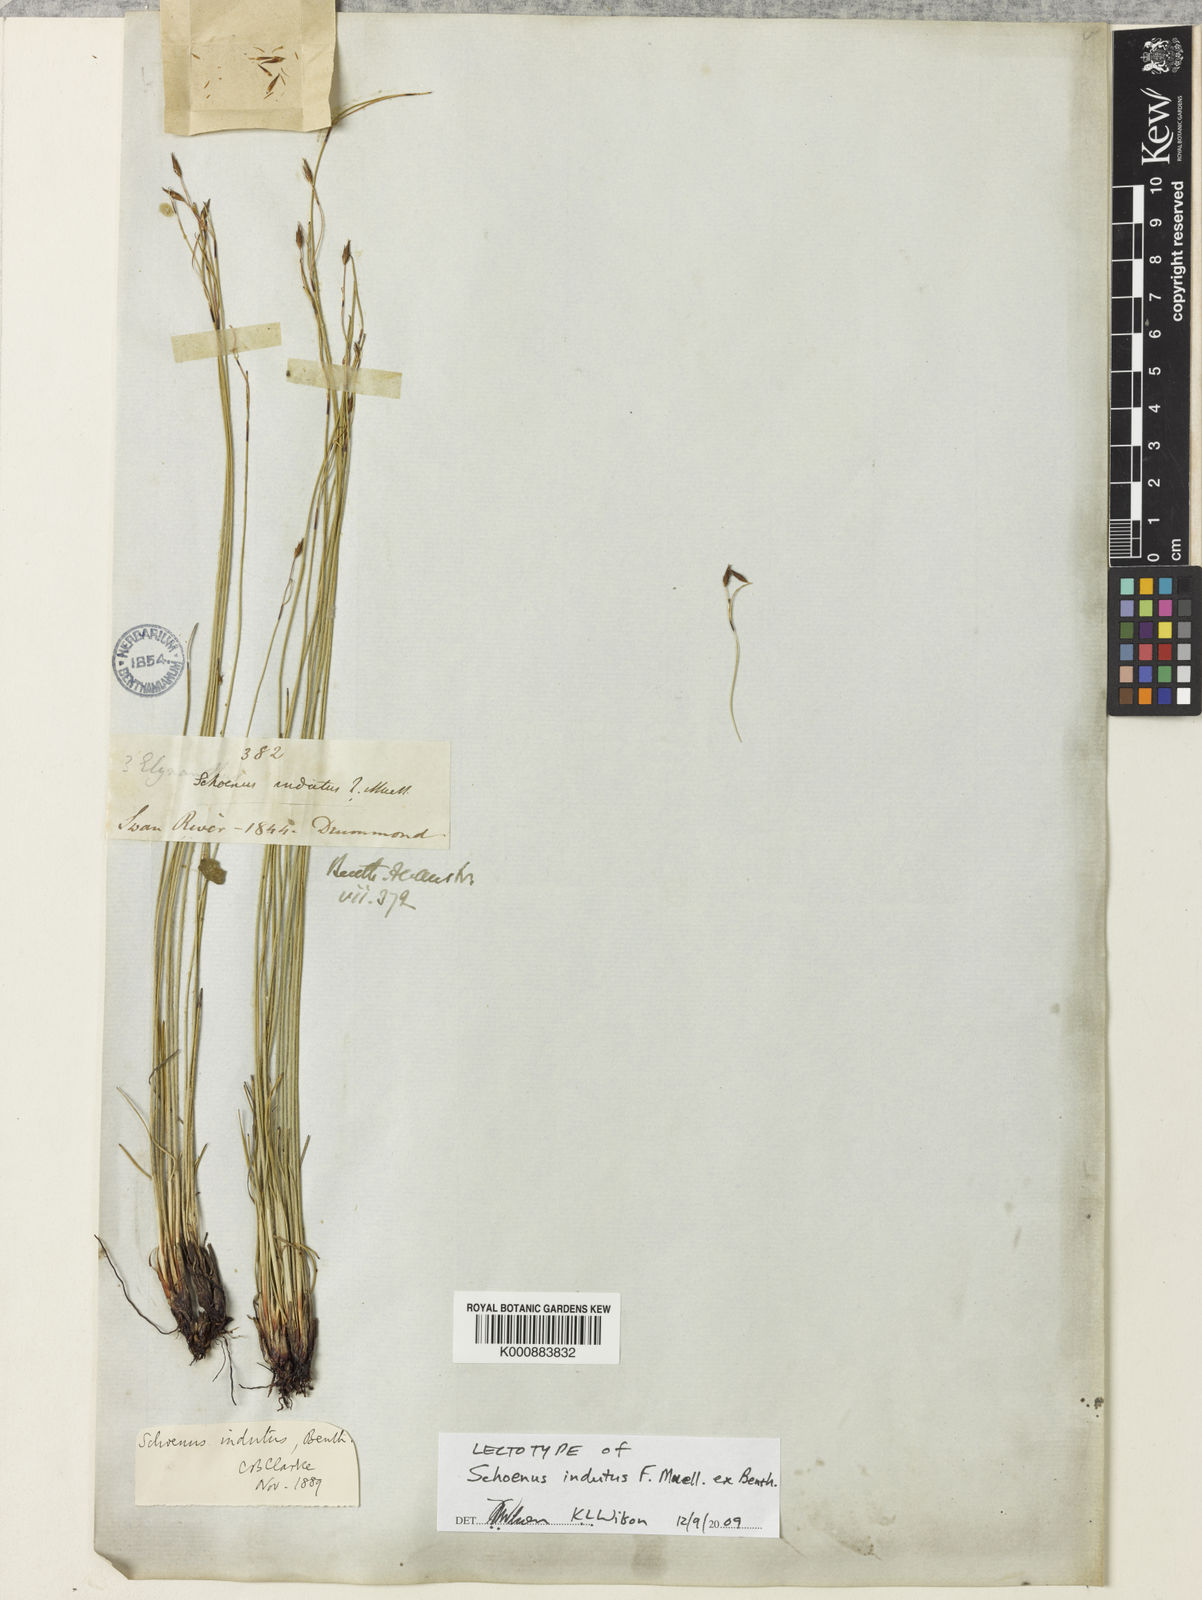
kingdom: Plantae
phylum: Tracheophyta
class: Liliopsida
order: Poales
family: Cyperaceae
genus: Schoenus
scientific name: Schoenus indutus
